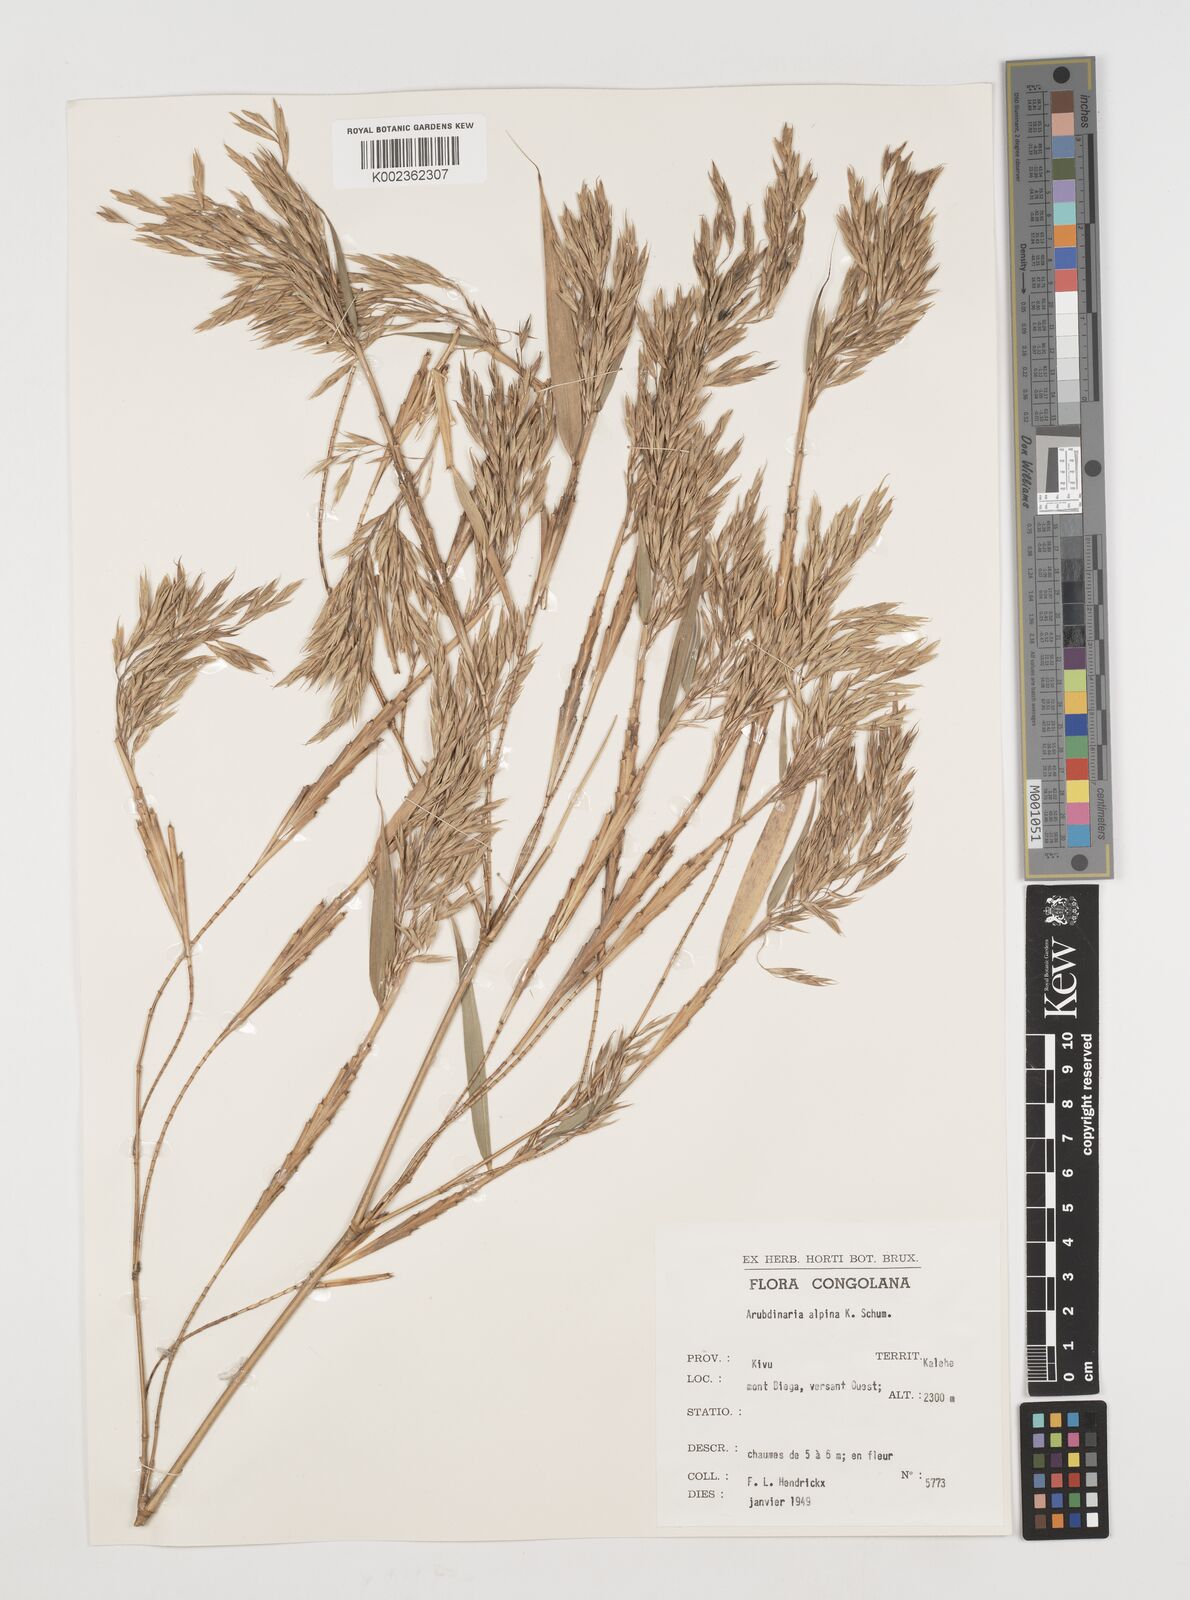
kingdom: Plantae
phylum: Tracheophyta
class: Liliopsida
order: Poales
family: Poaceae
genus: Oldeania
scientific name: Oldeania alpina
